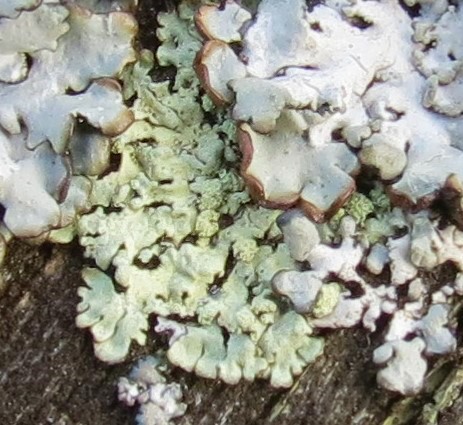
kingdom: Fungi
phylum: Ascomycota
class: Lecanoromycetes
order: Lecanorales
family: Parmeliaceae
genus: Parmeliopsis
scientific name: Parmeliopsis ambigua
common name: gul stolpelav
